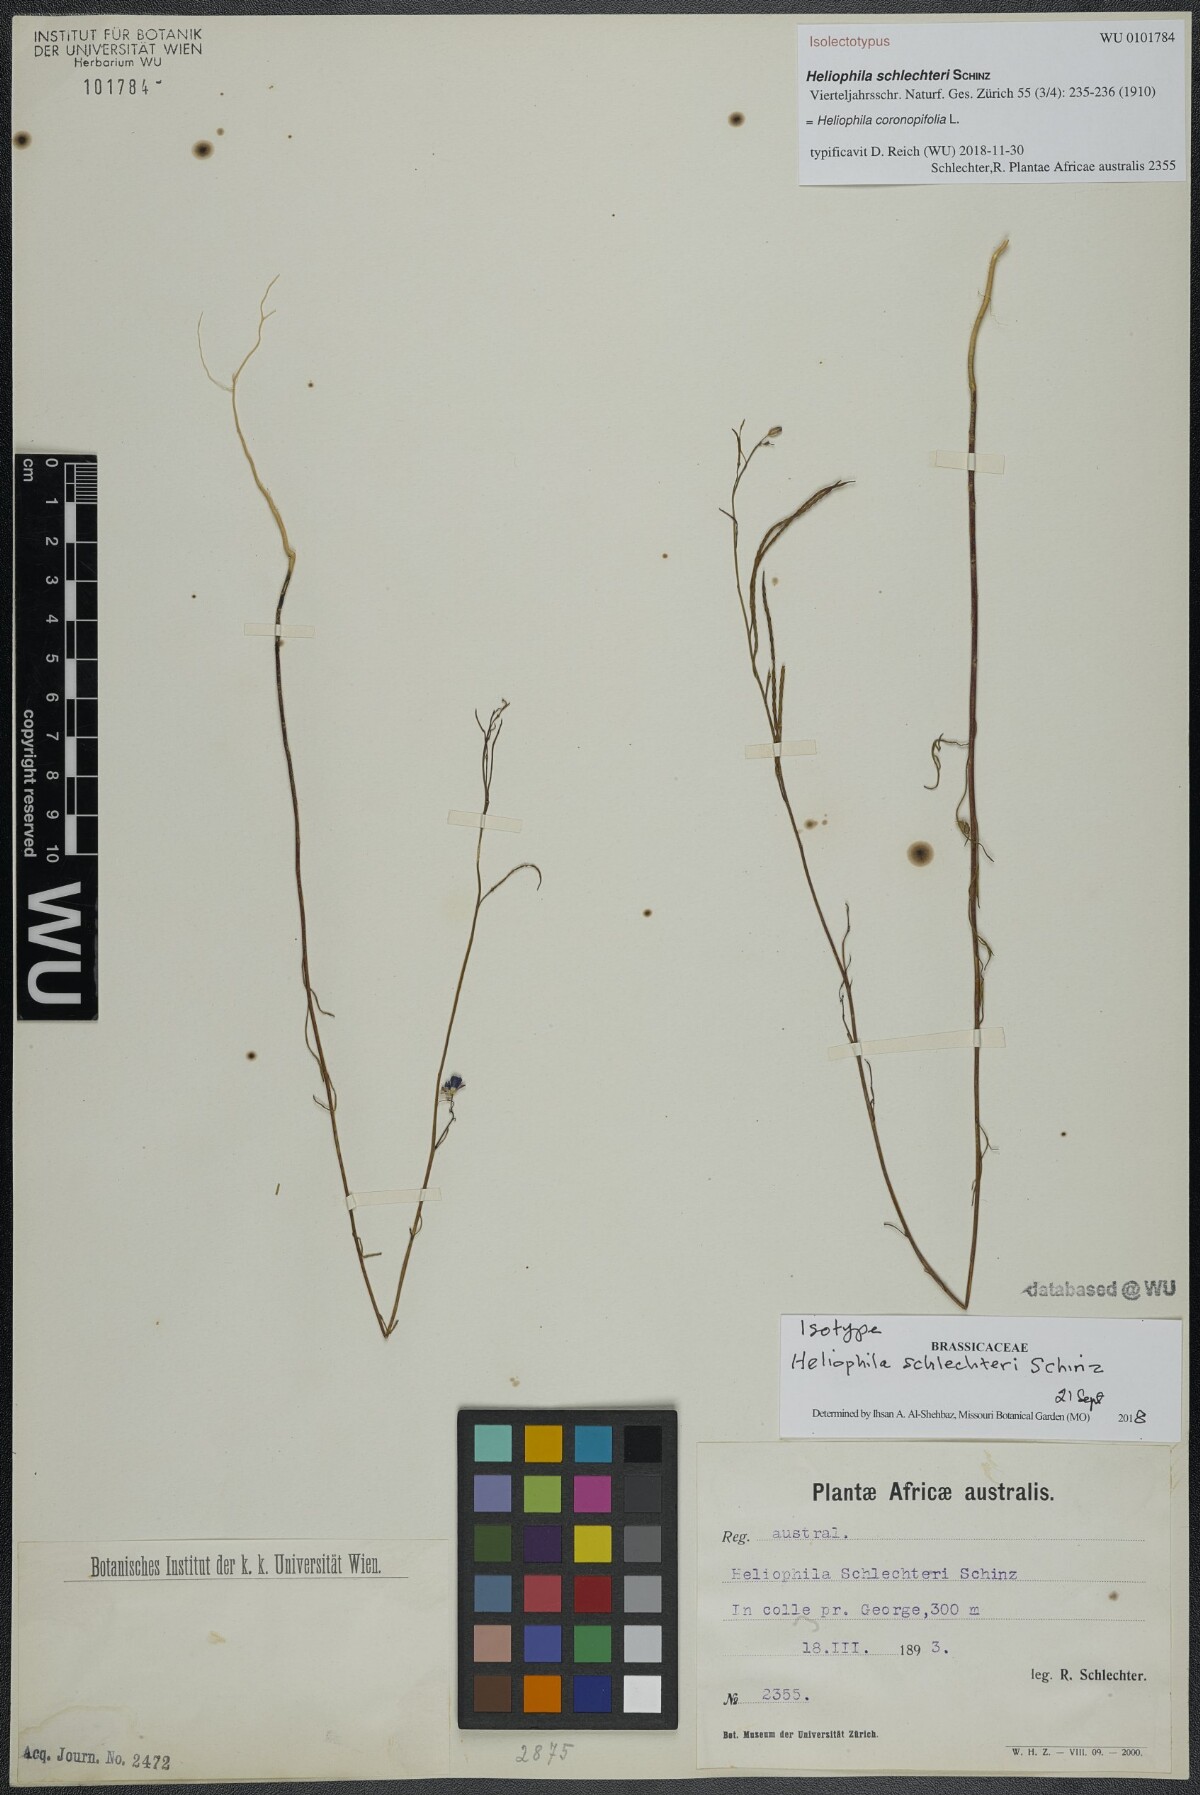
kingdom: Plantae
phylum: Tracheophyta
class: Magnoliopsida
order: Brassicales
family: Brassicaceae
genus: Heliophila
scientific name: Heliophila digitata
